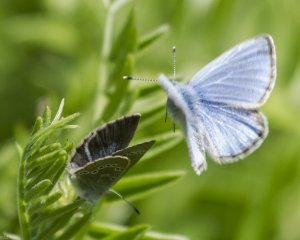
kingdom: Animalia
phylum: Arthropoda
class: Insecta
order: Lepidoptera
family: Lycaenidae
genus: Glaucopsyche
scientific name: Glaucopsyche lygdamus
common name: Silvery Blue
